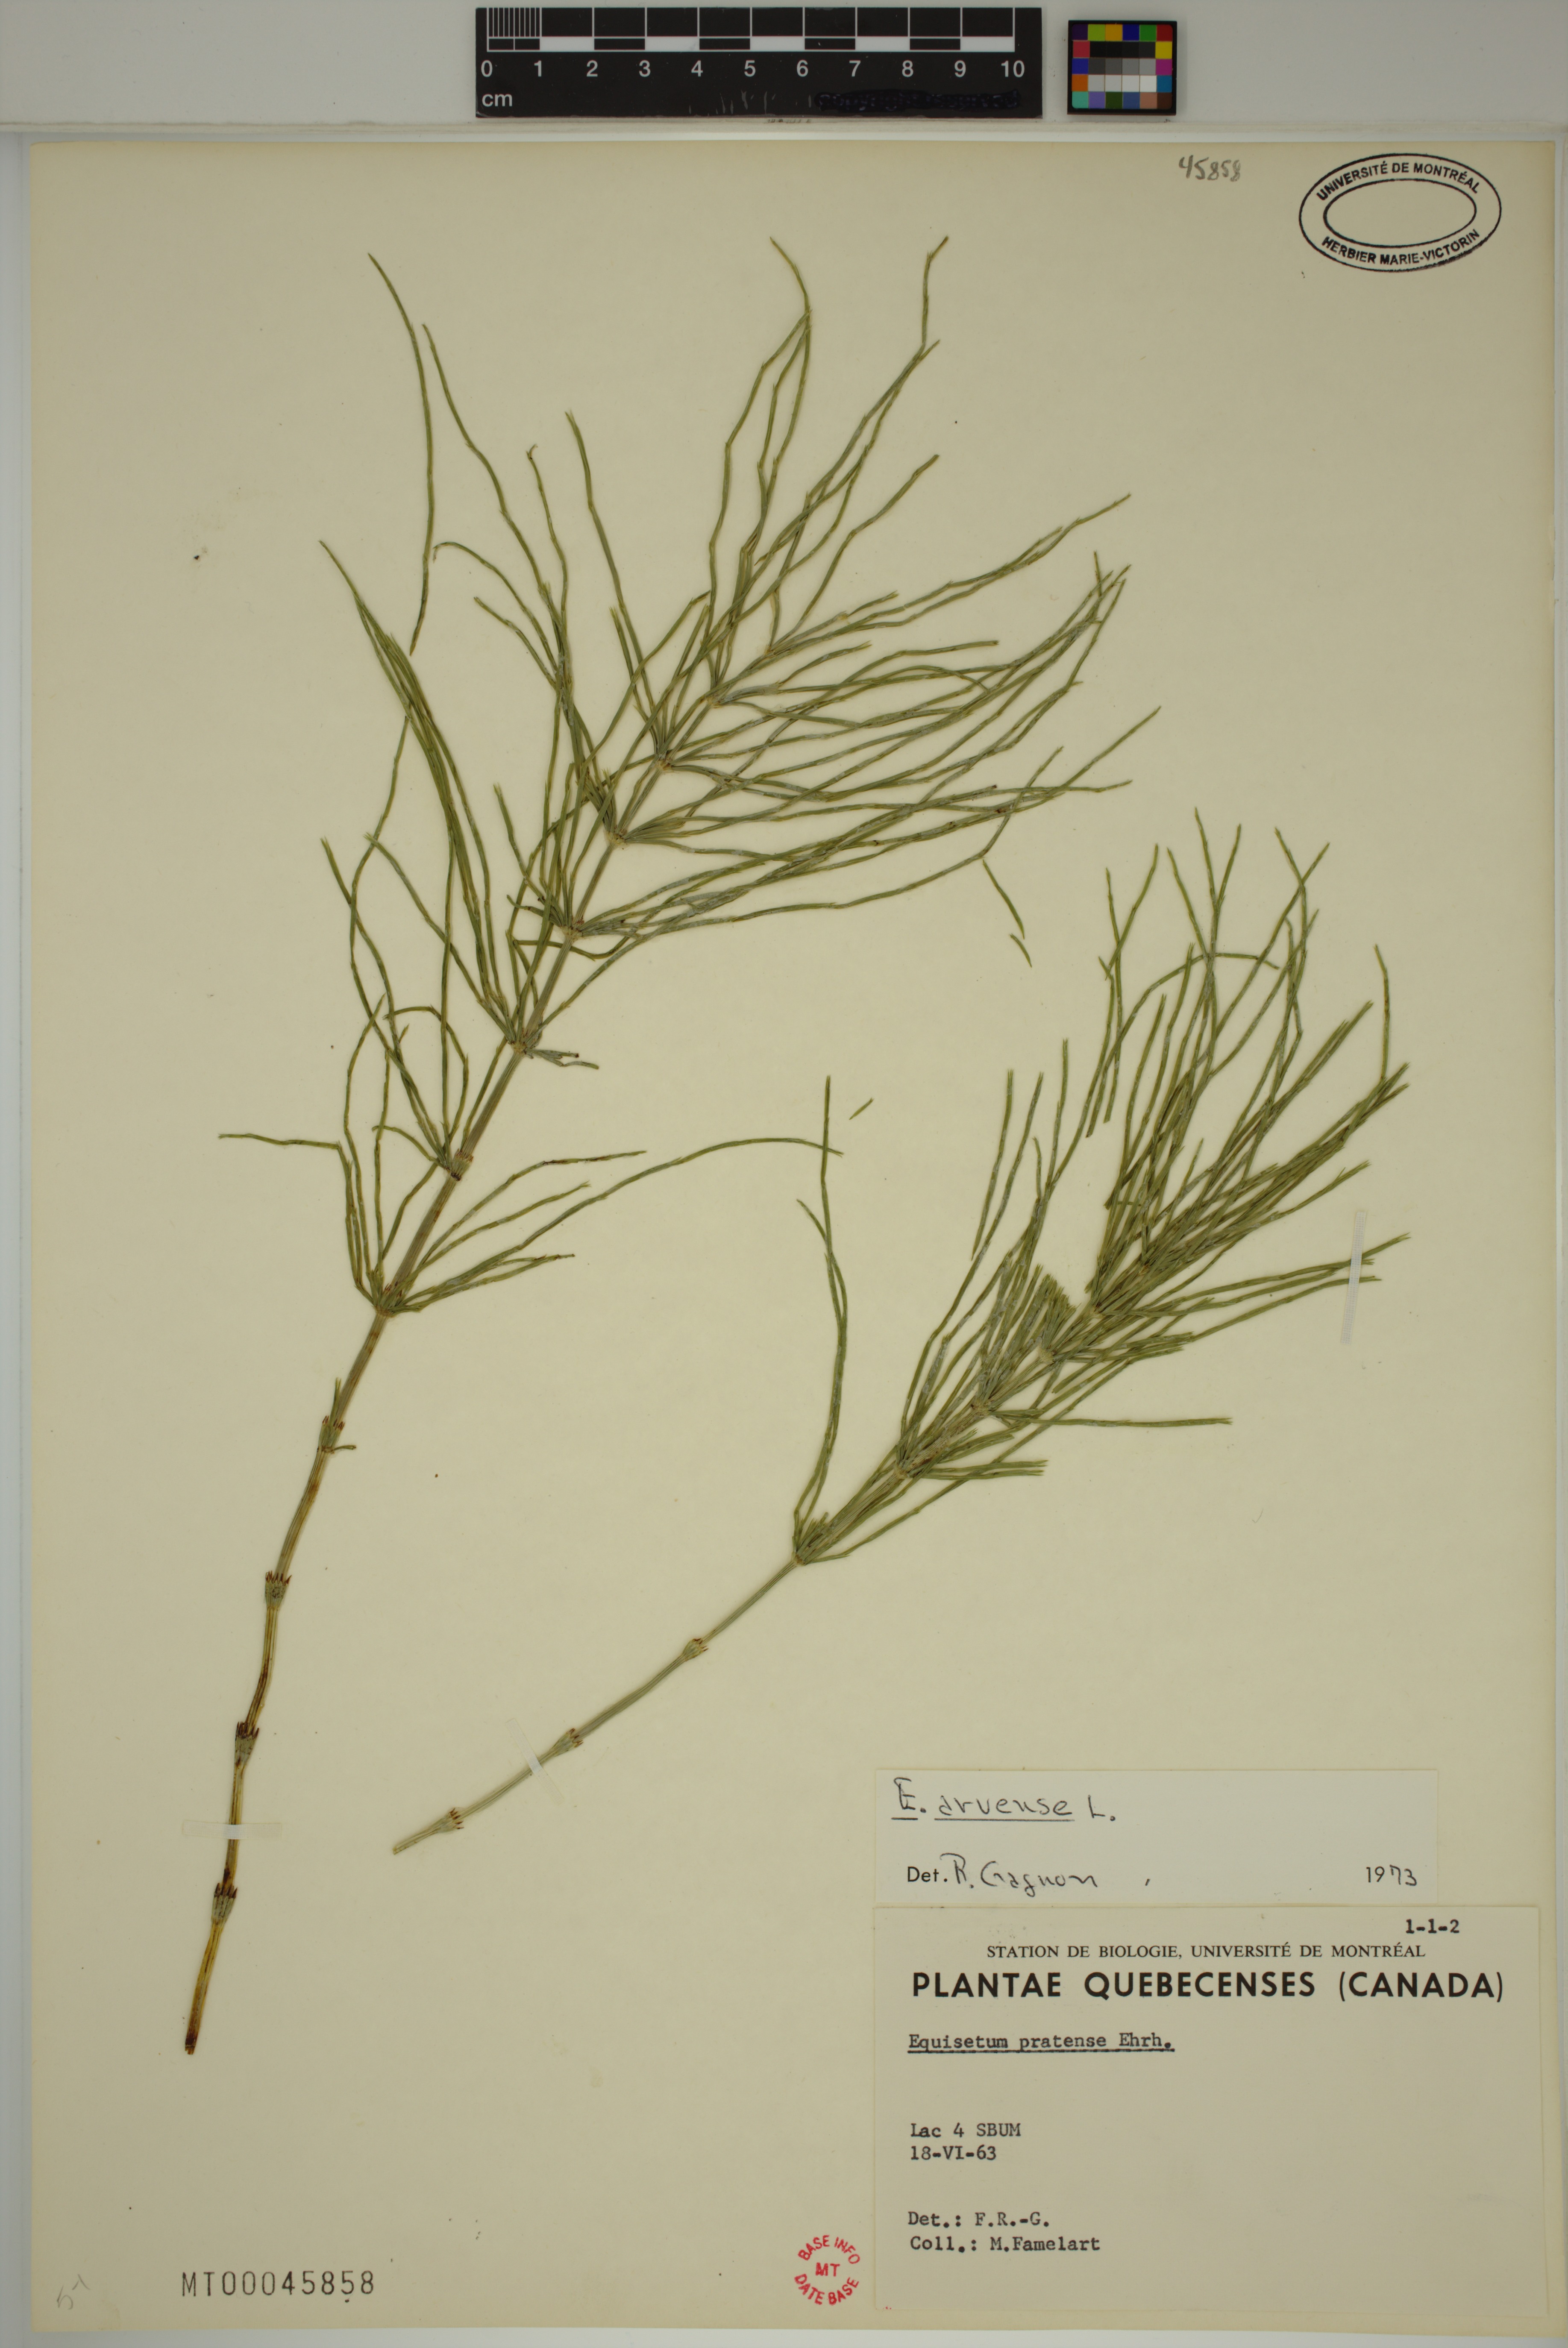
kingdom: Plantae
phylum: Tracheophyta
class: Polypodiopsida
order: Equisetales
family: Equisetaceae
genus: Equisetum
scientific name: Equisetum arvense
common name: Field horsetail
